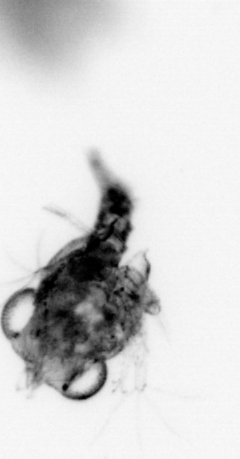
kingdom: Animalia
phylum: Arthropoda
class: Malacostraca
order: Decapoda
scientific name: Decapoda
